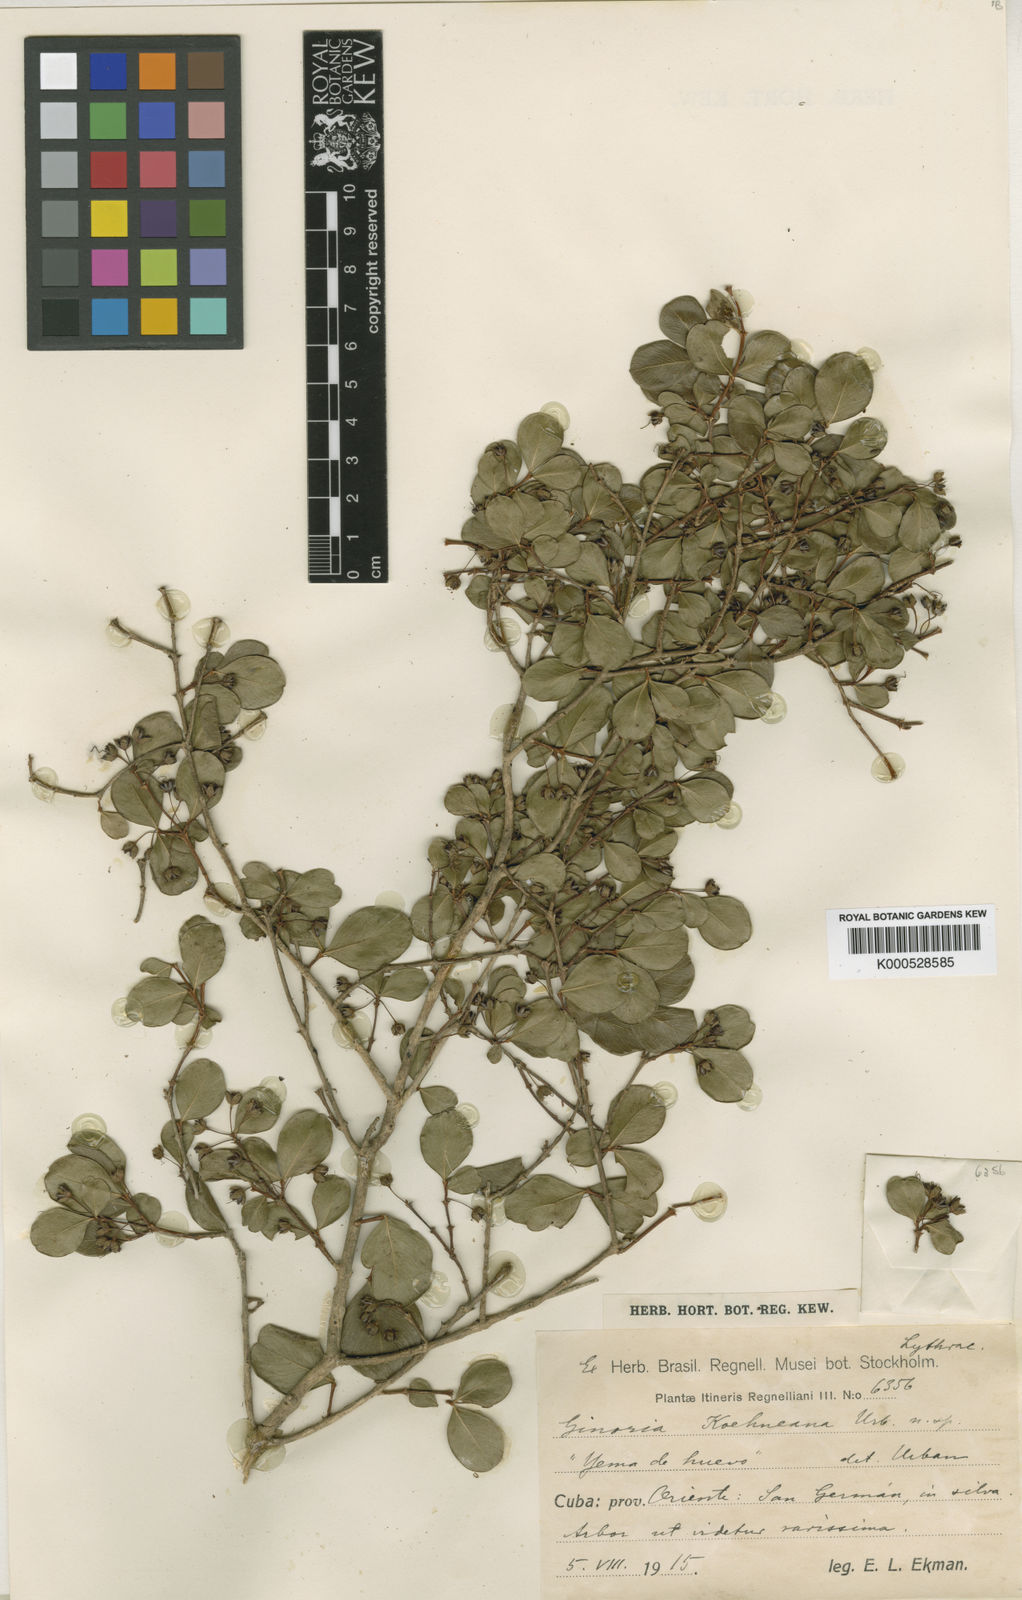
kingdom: Plantae
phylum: Tracheophyta
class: Magnoliopsida
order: Myrtales
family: Lythraceae
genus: Ginoria
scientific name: Ginoria koehneana
